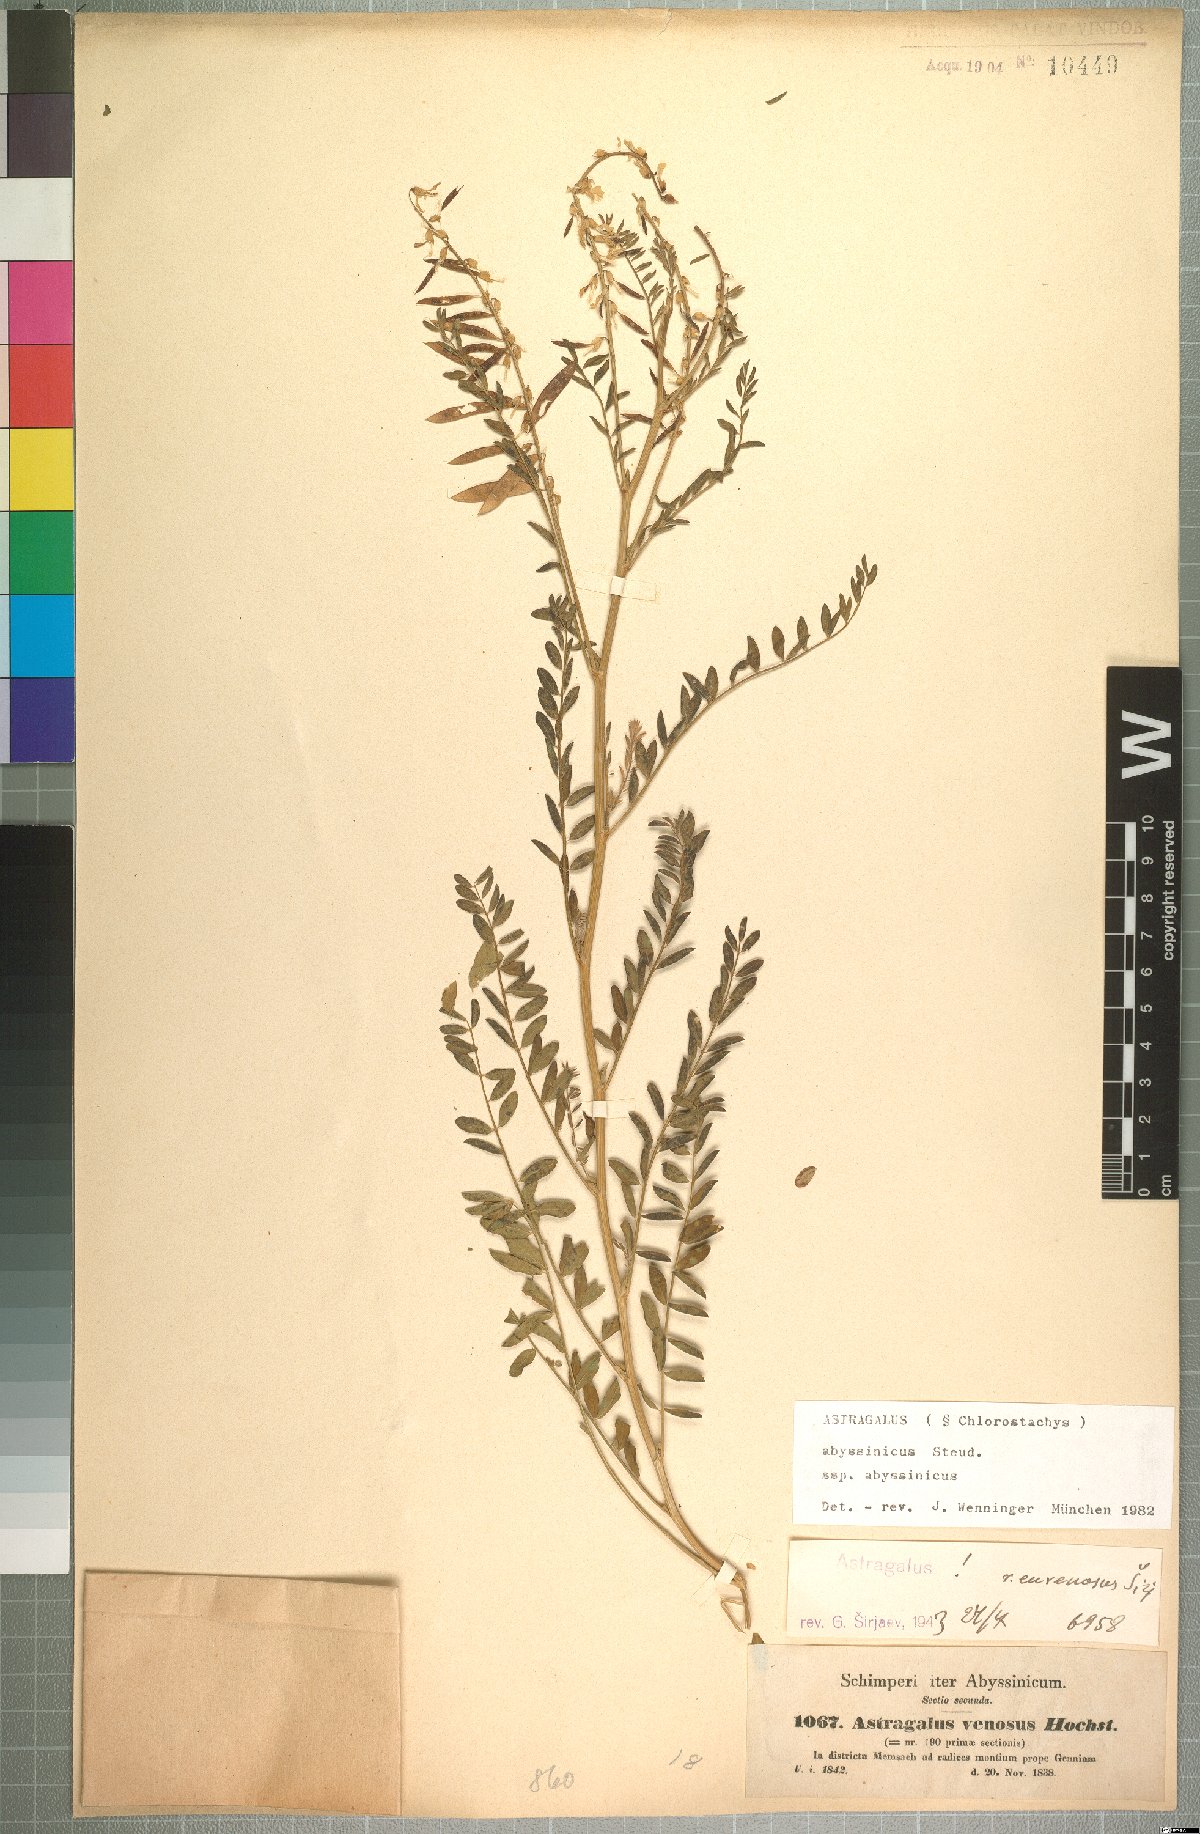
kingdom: Plantae
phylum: Tracheophyta
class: Magnoliopsida
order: Fabales
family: Fabaceae
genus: Astragalus
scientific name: Astragalus atropilosulus
